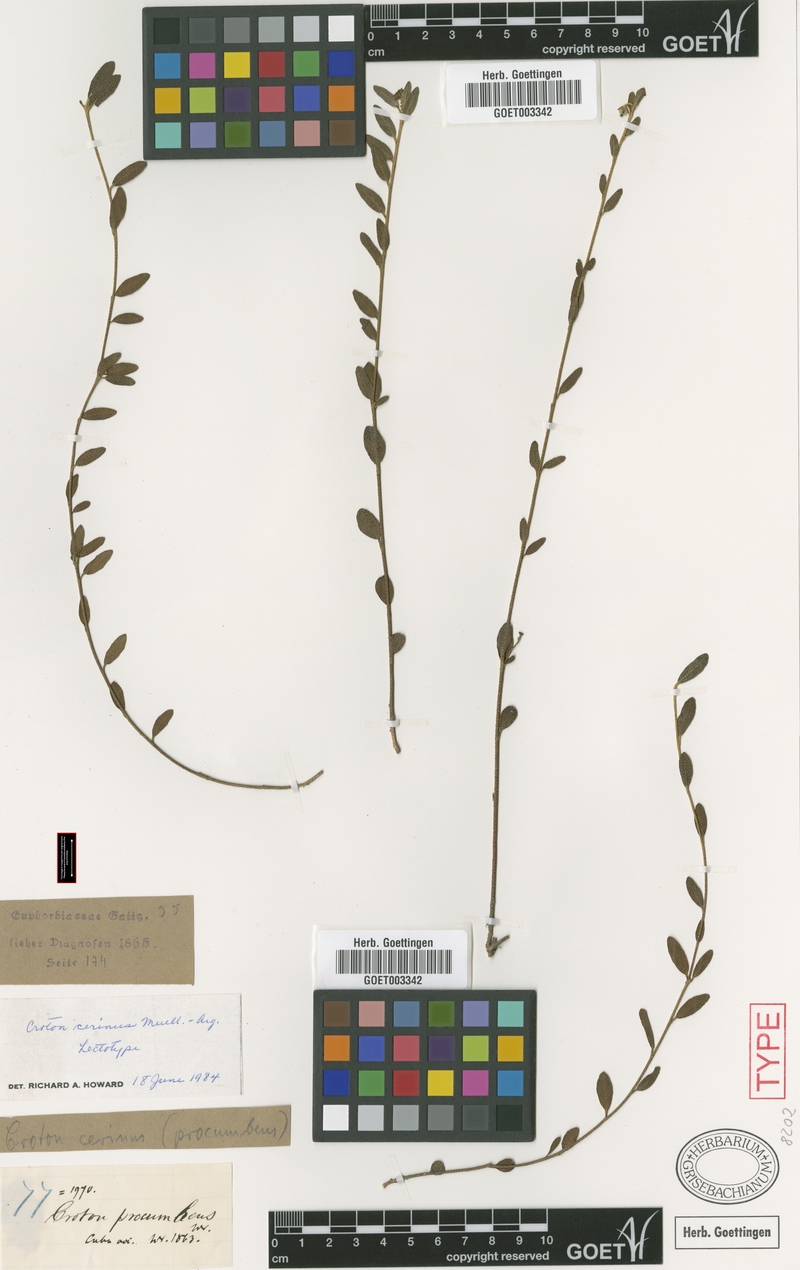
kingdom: Plantae
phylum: Tracheophyta
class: Magnoliopsida
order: Malpighiales
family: Euphorbiaceae
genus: Croton
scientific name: Croton cerinus
